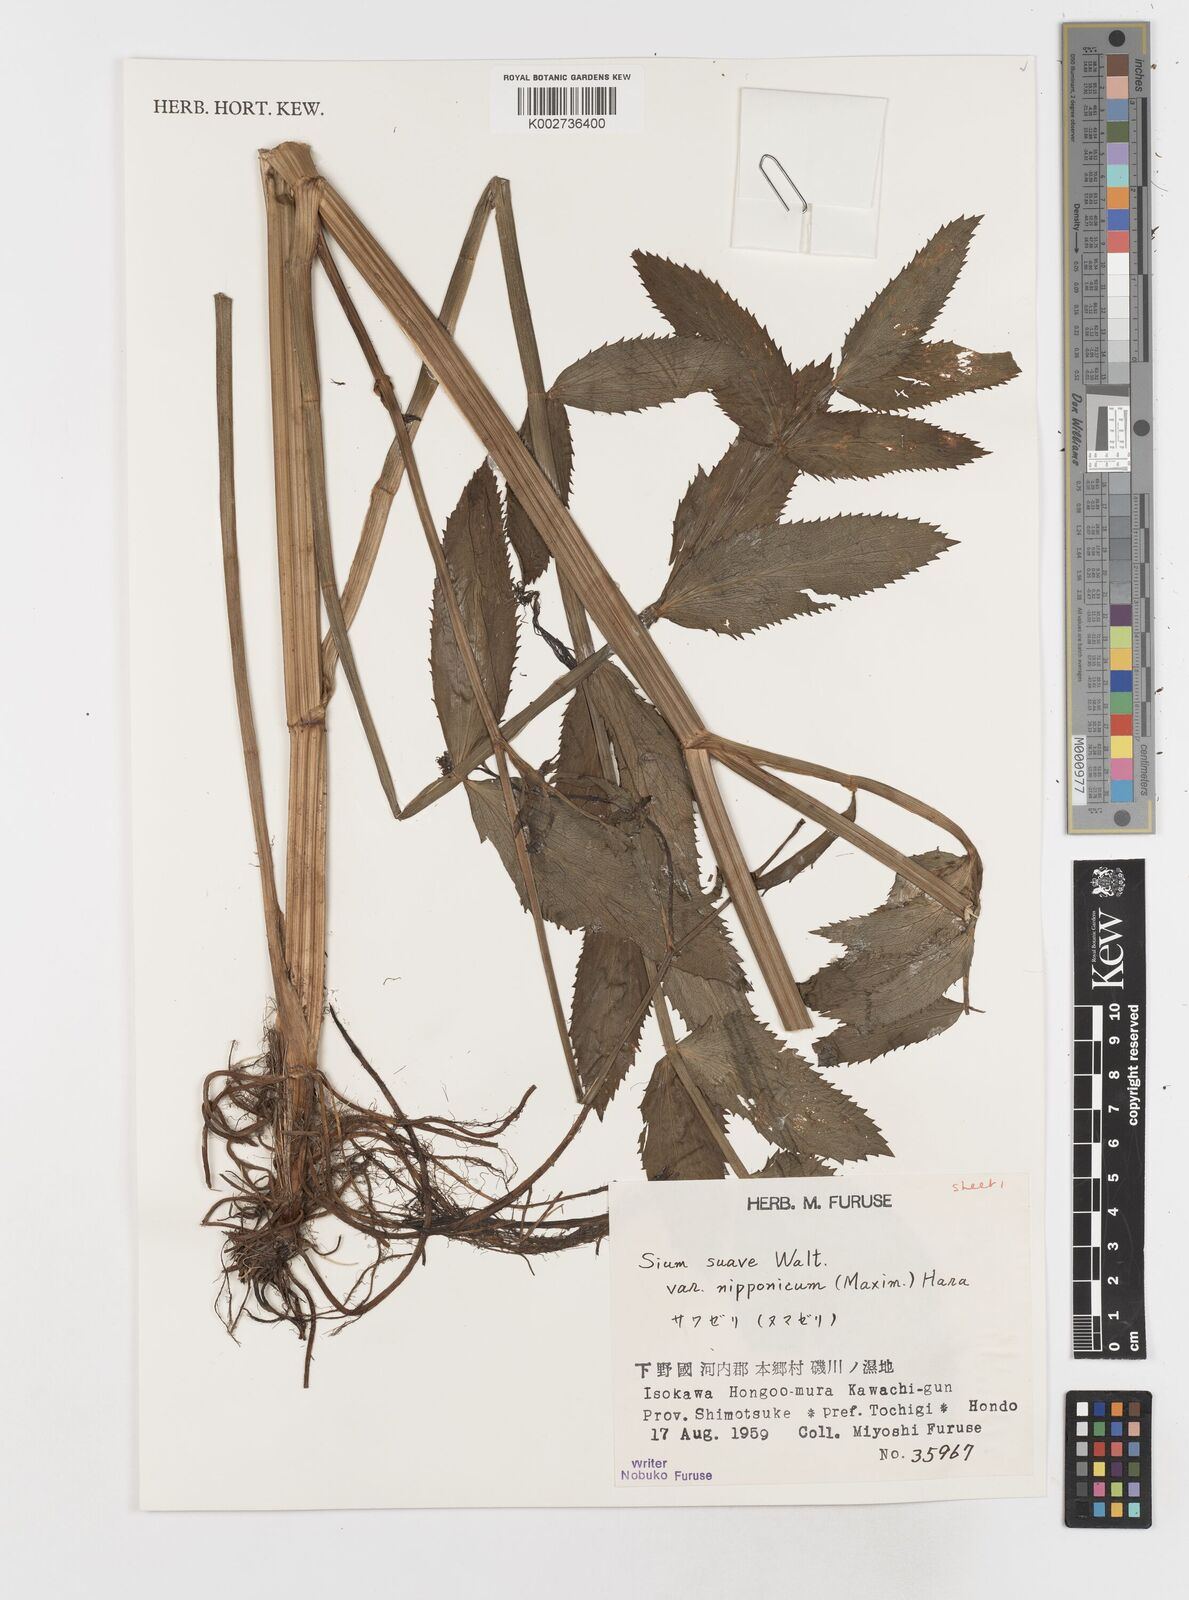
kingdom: Plantae
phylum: Tracheophyta
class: Magnoliopsida
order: Apiales
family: Apiaceae
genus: Sium
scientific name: Sium suave
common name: Hemlock water-parsnip
